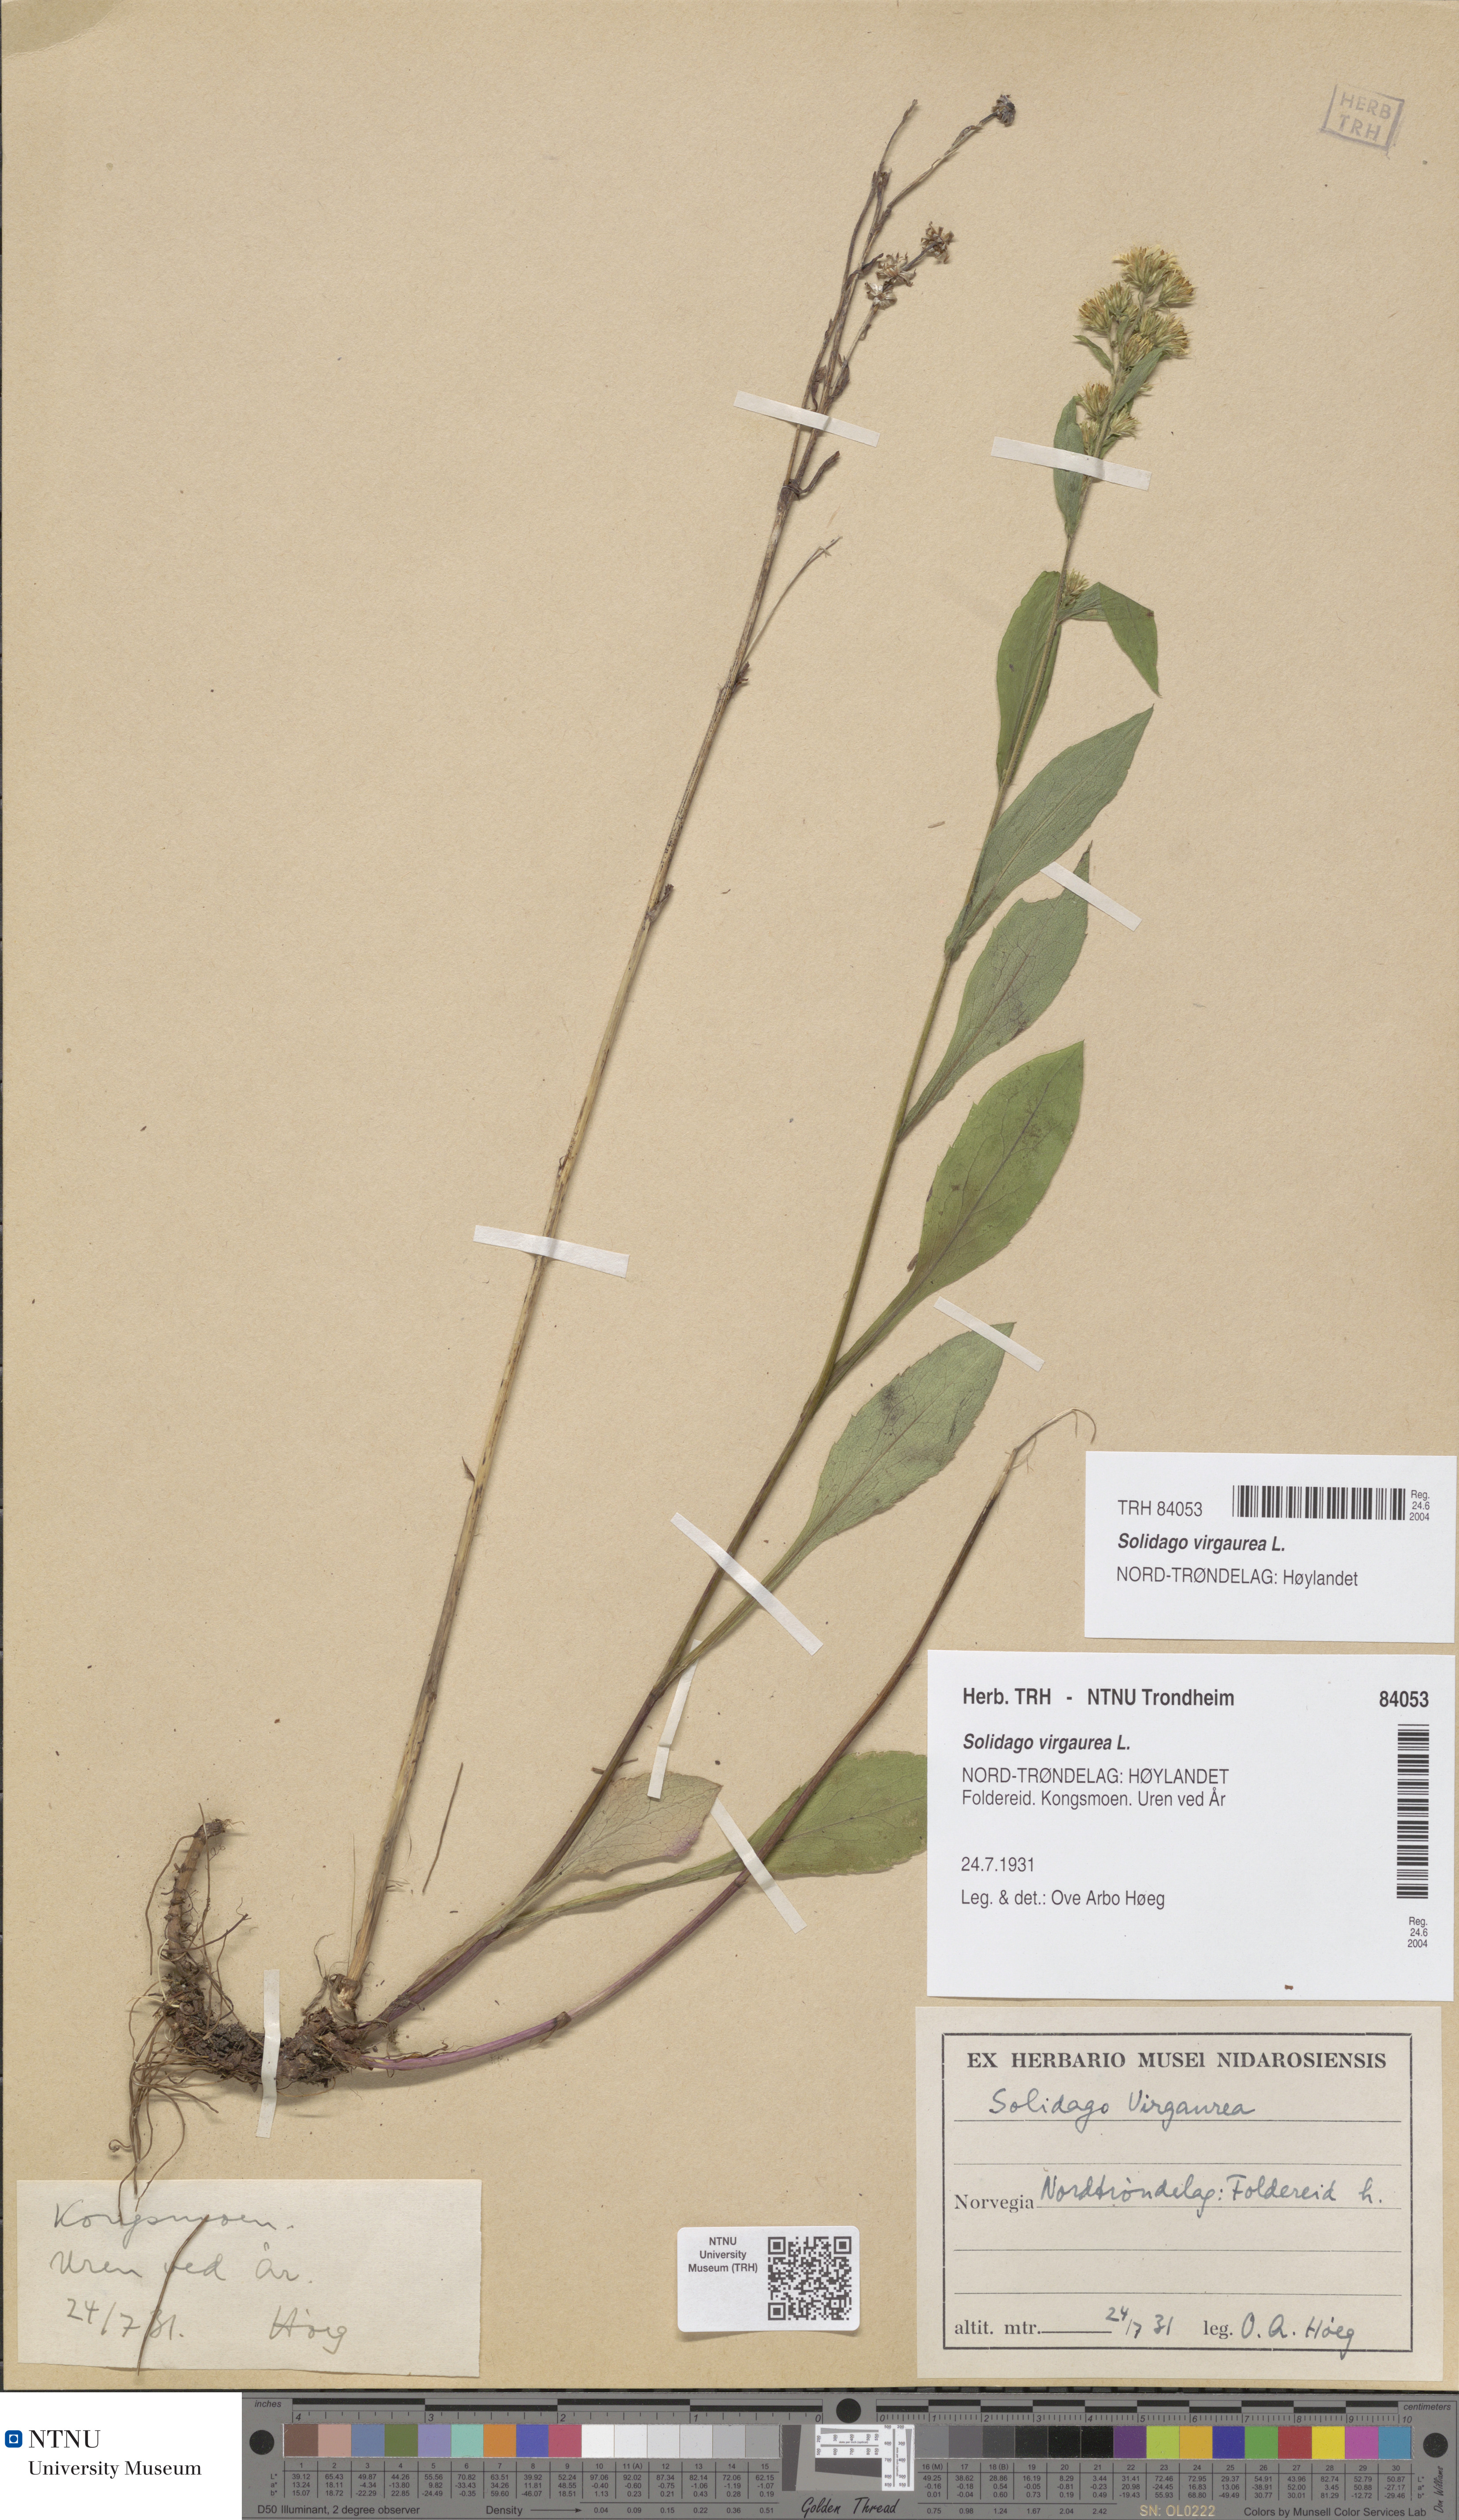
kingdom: Plantae
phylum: Tracheophyta
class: Magnoliopsida
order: Asterales
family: Asteraceae
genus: Solidago
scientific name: Solidago virgaurea
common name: Goldenrod
